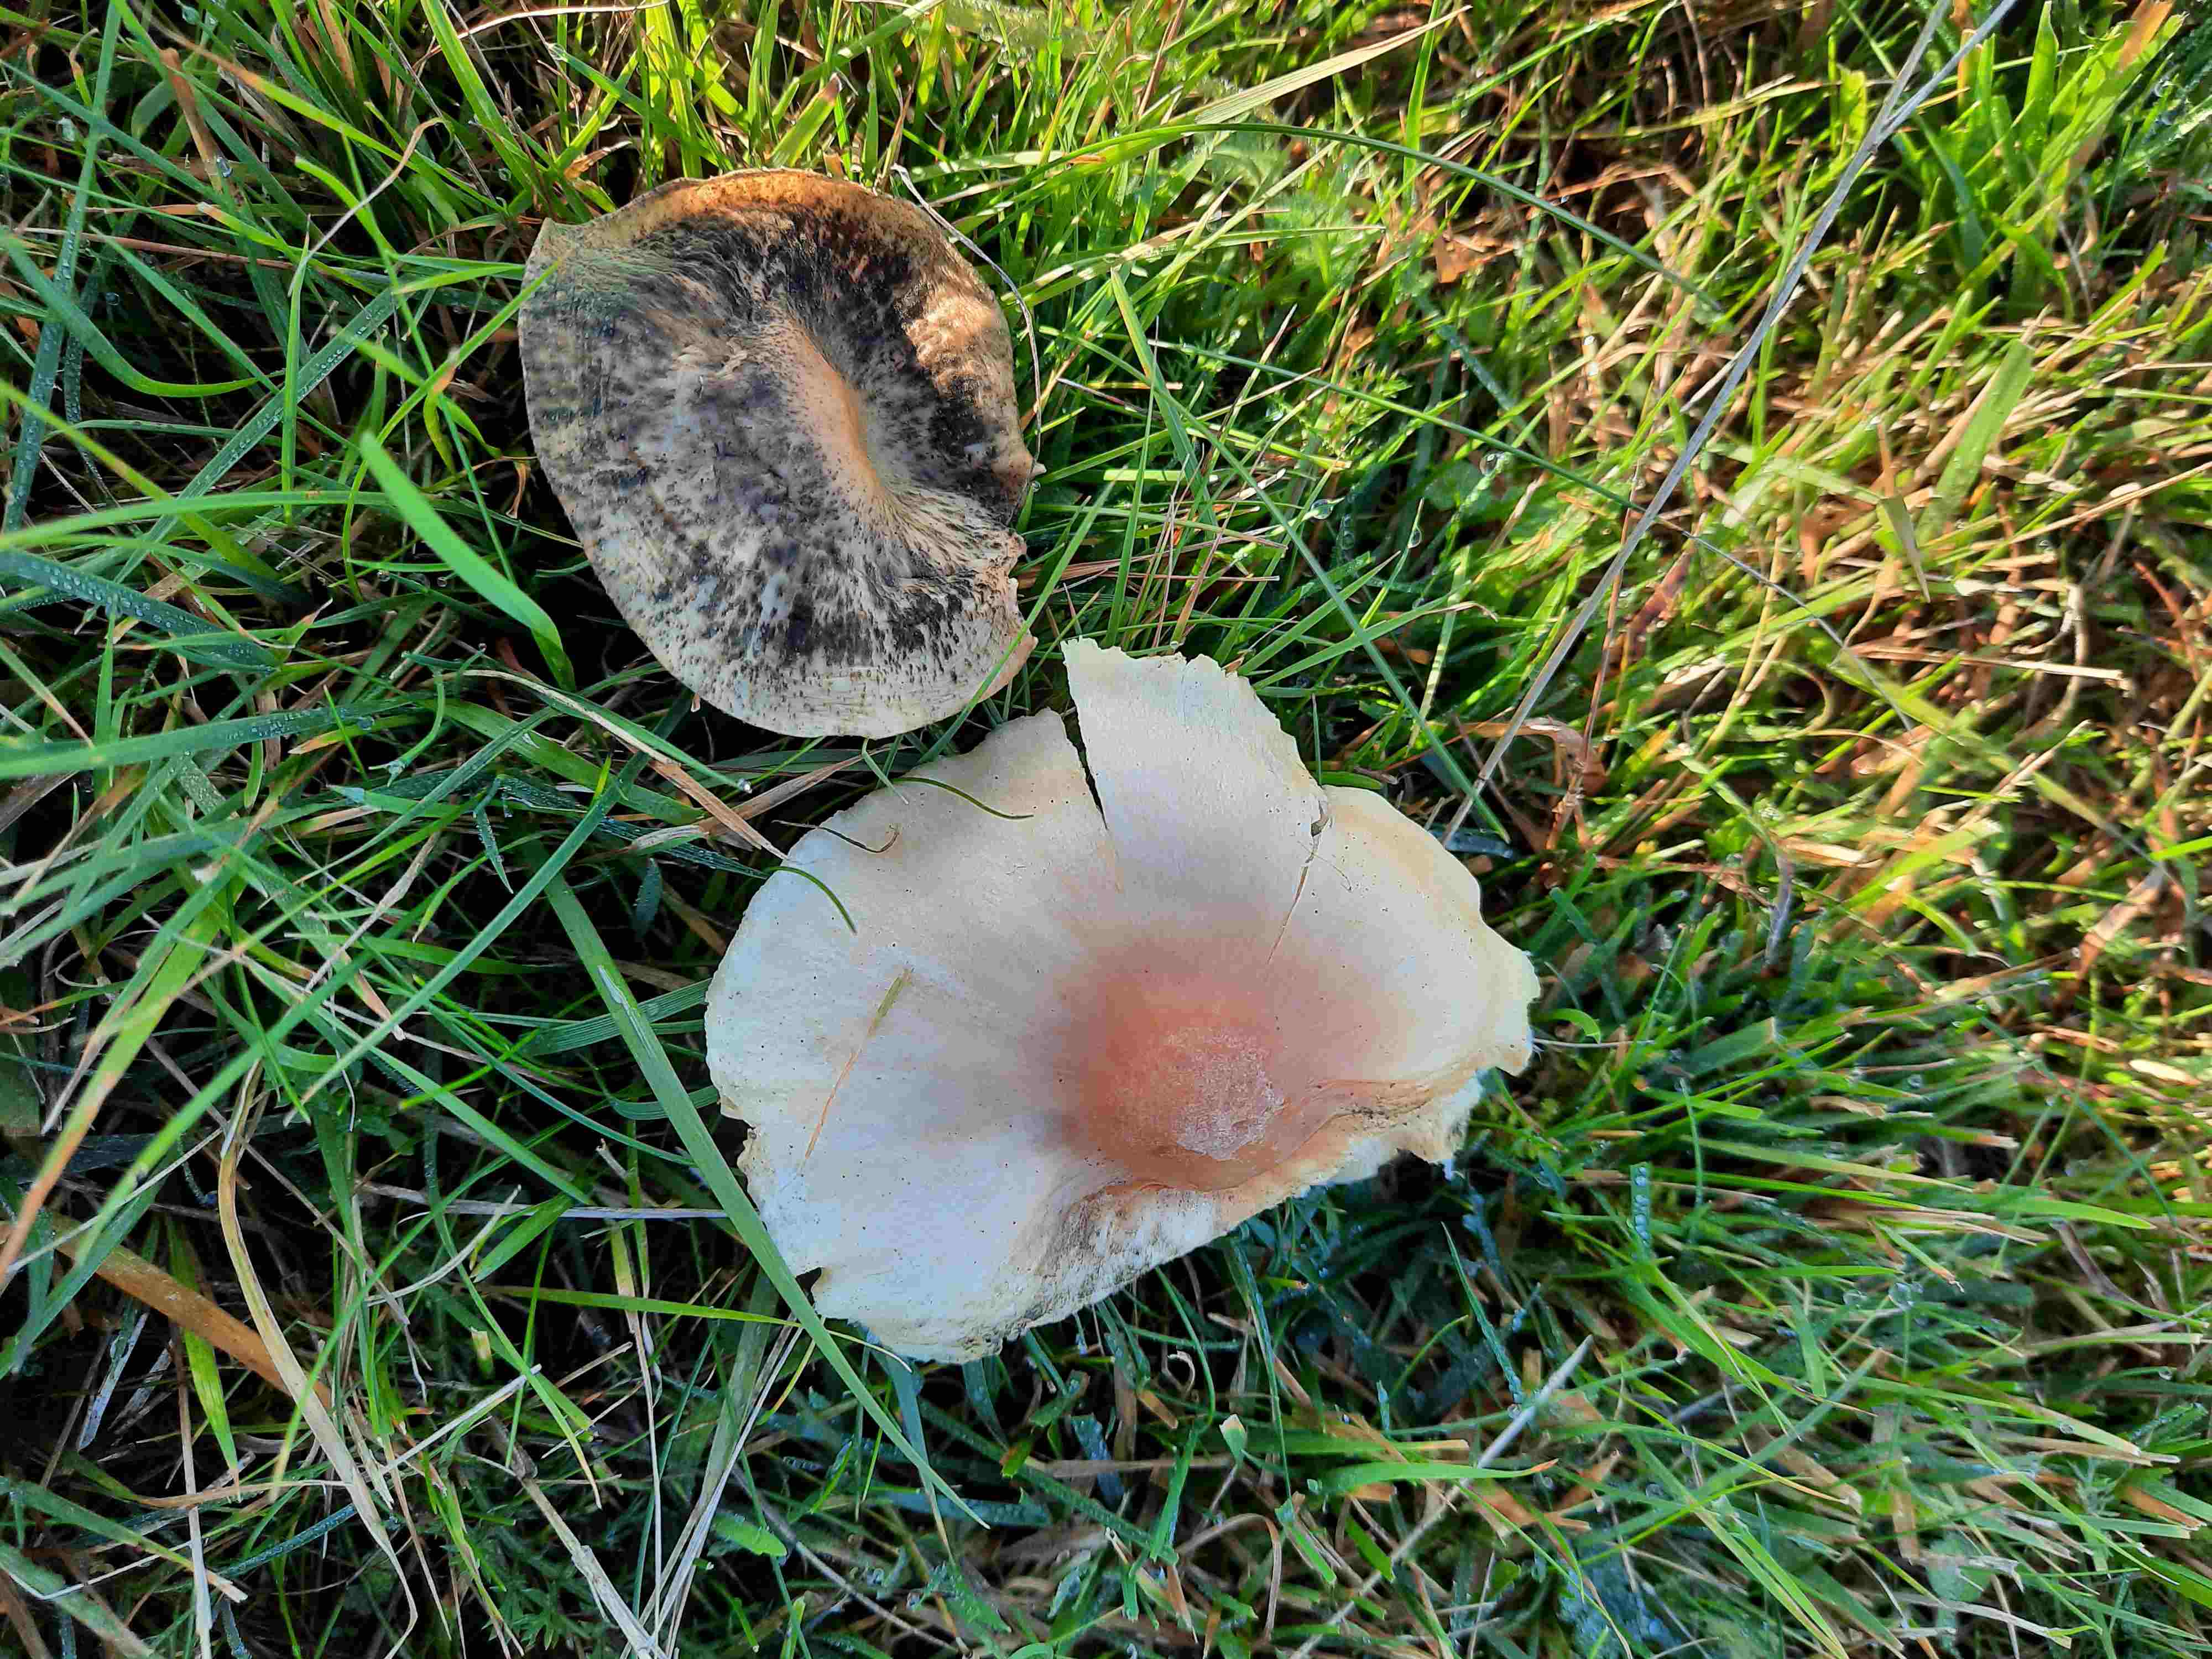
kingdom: Fungi
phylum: Basidiomycota
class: Agaricomycetes
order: Agaricales
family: Hygrophoraceae
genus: Cuphophyllus
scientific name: Cuphophyllus pratensis
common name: eng-vokshat
